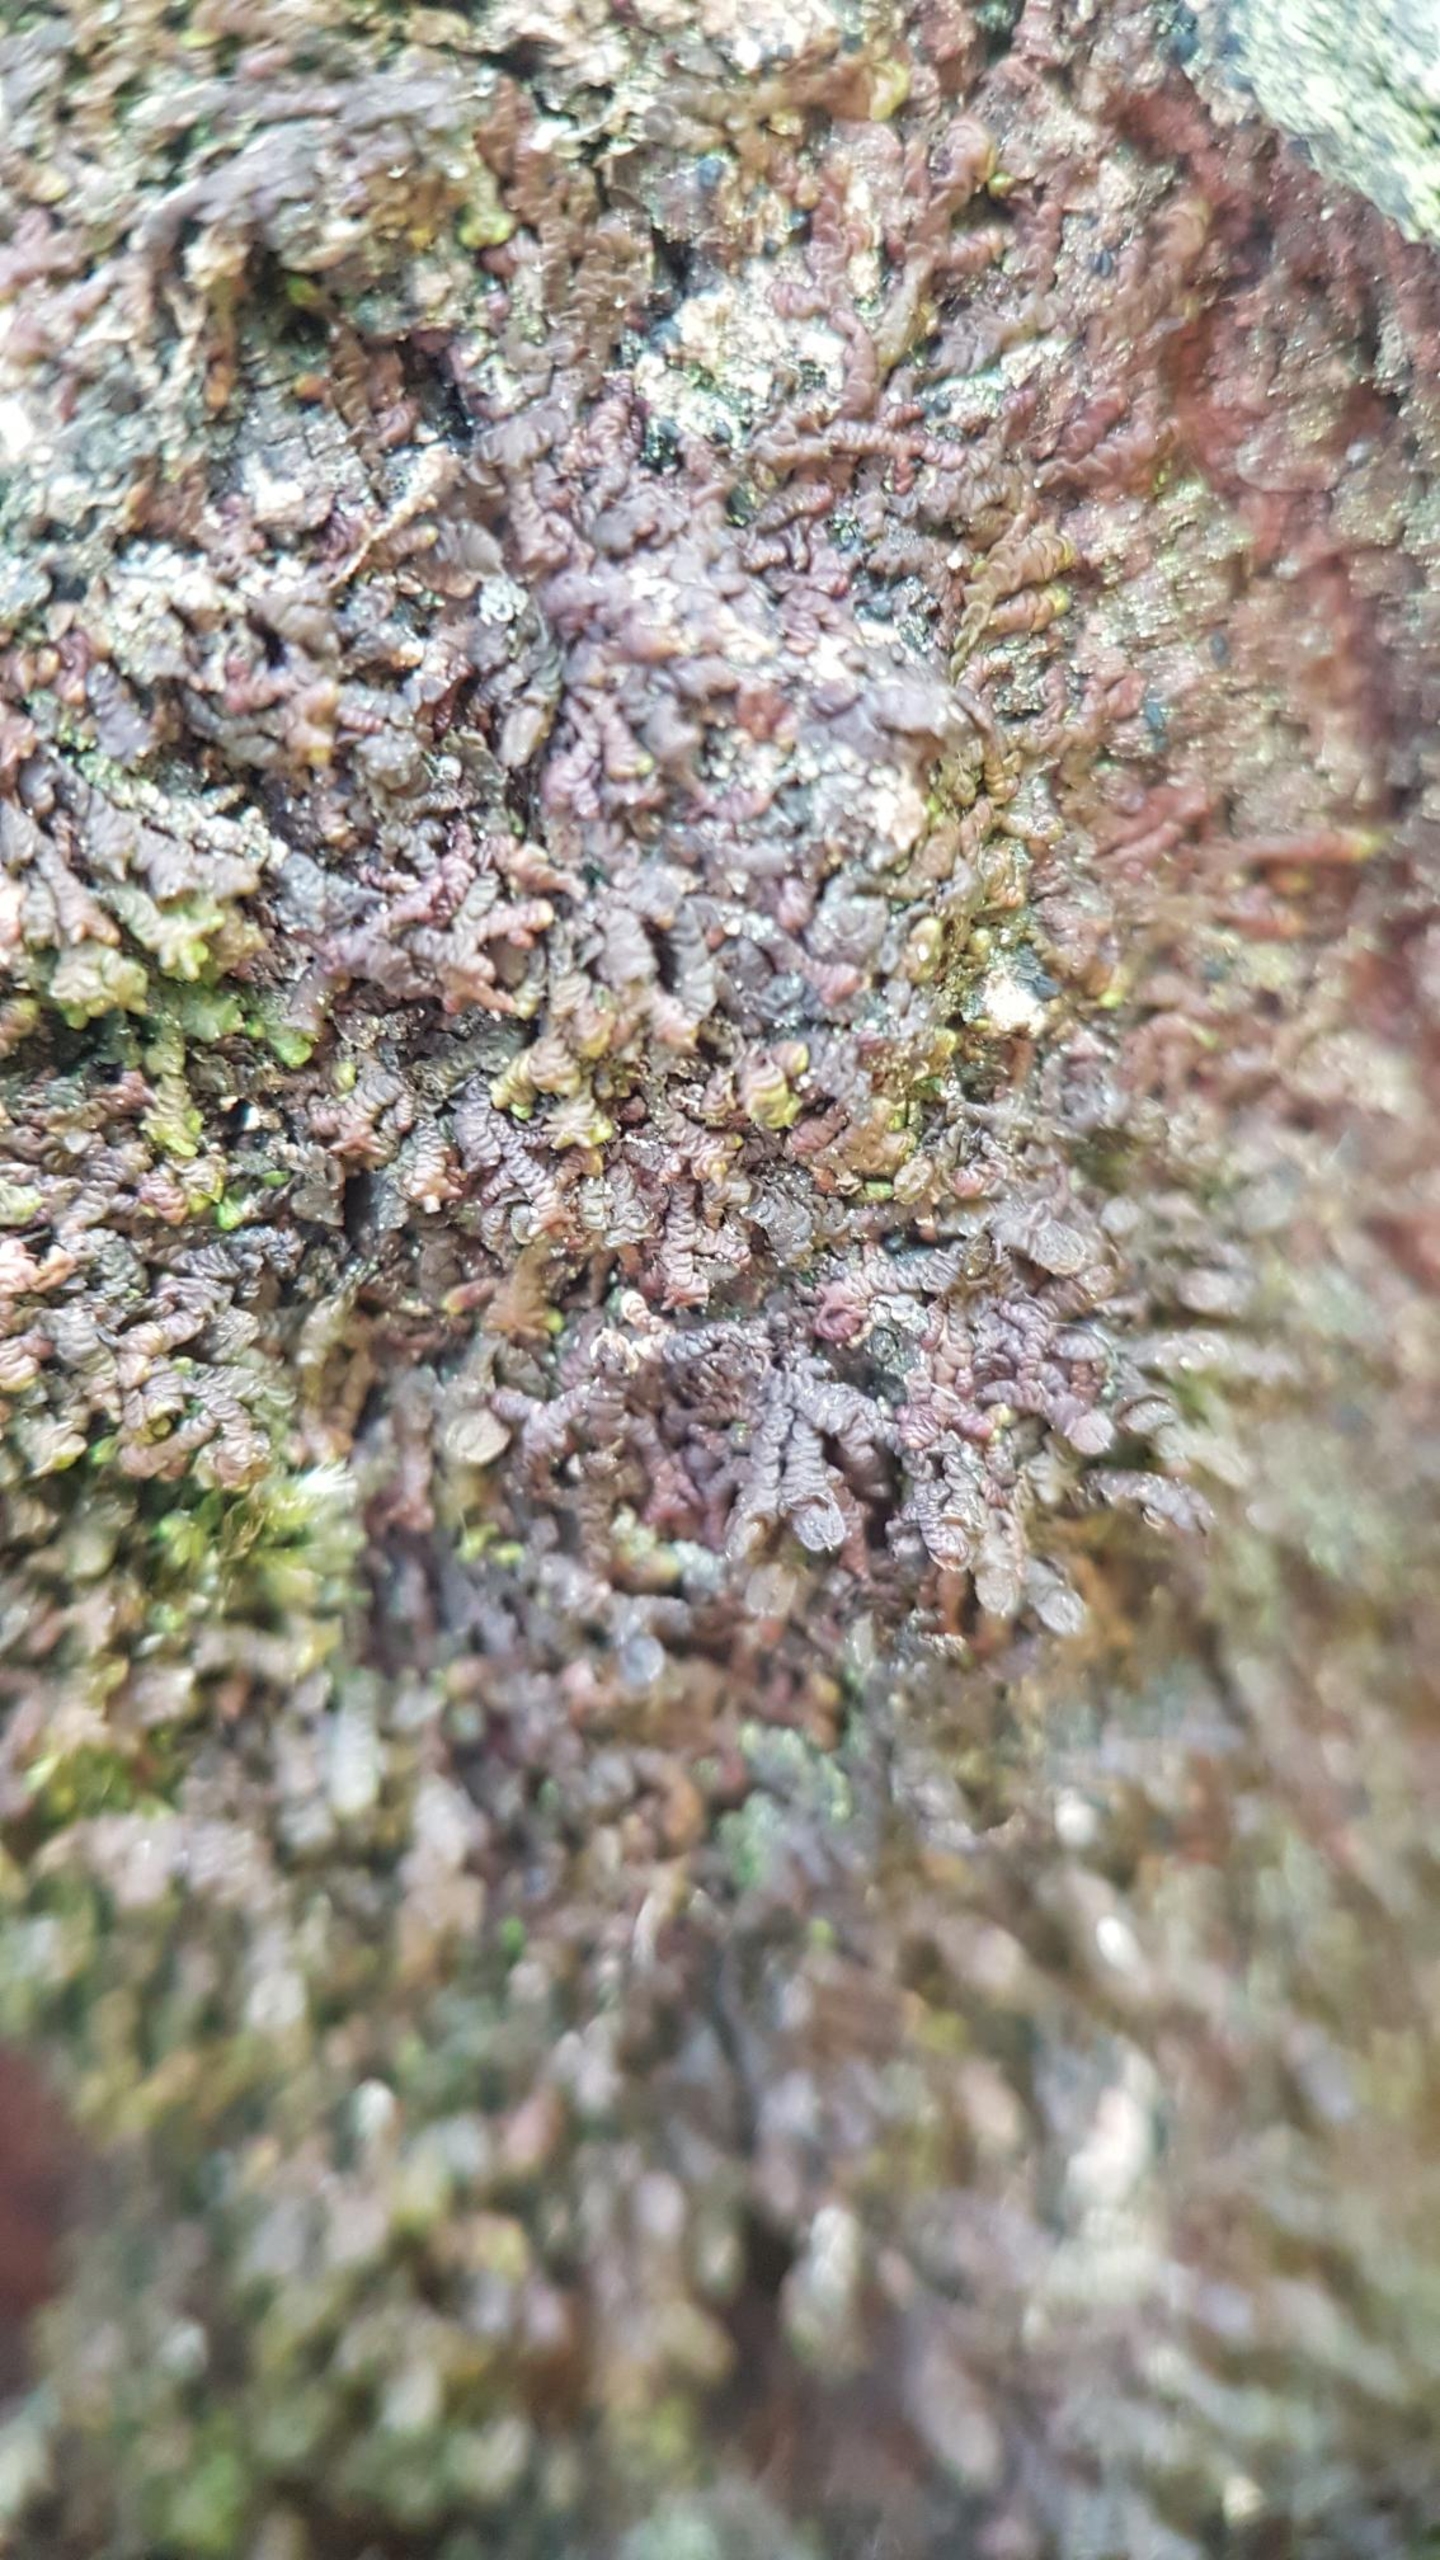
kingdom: Plantae
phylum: Marchantiophyta
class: Jungermanniopsida
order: Porellales
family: Frullaniaceae
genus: Frullania
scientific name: Frullania dilatata
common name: Mat bronzemos
